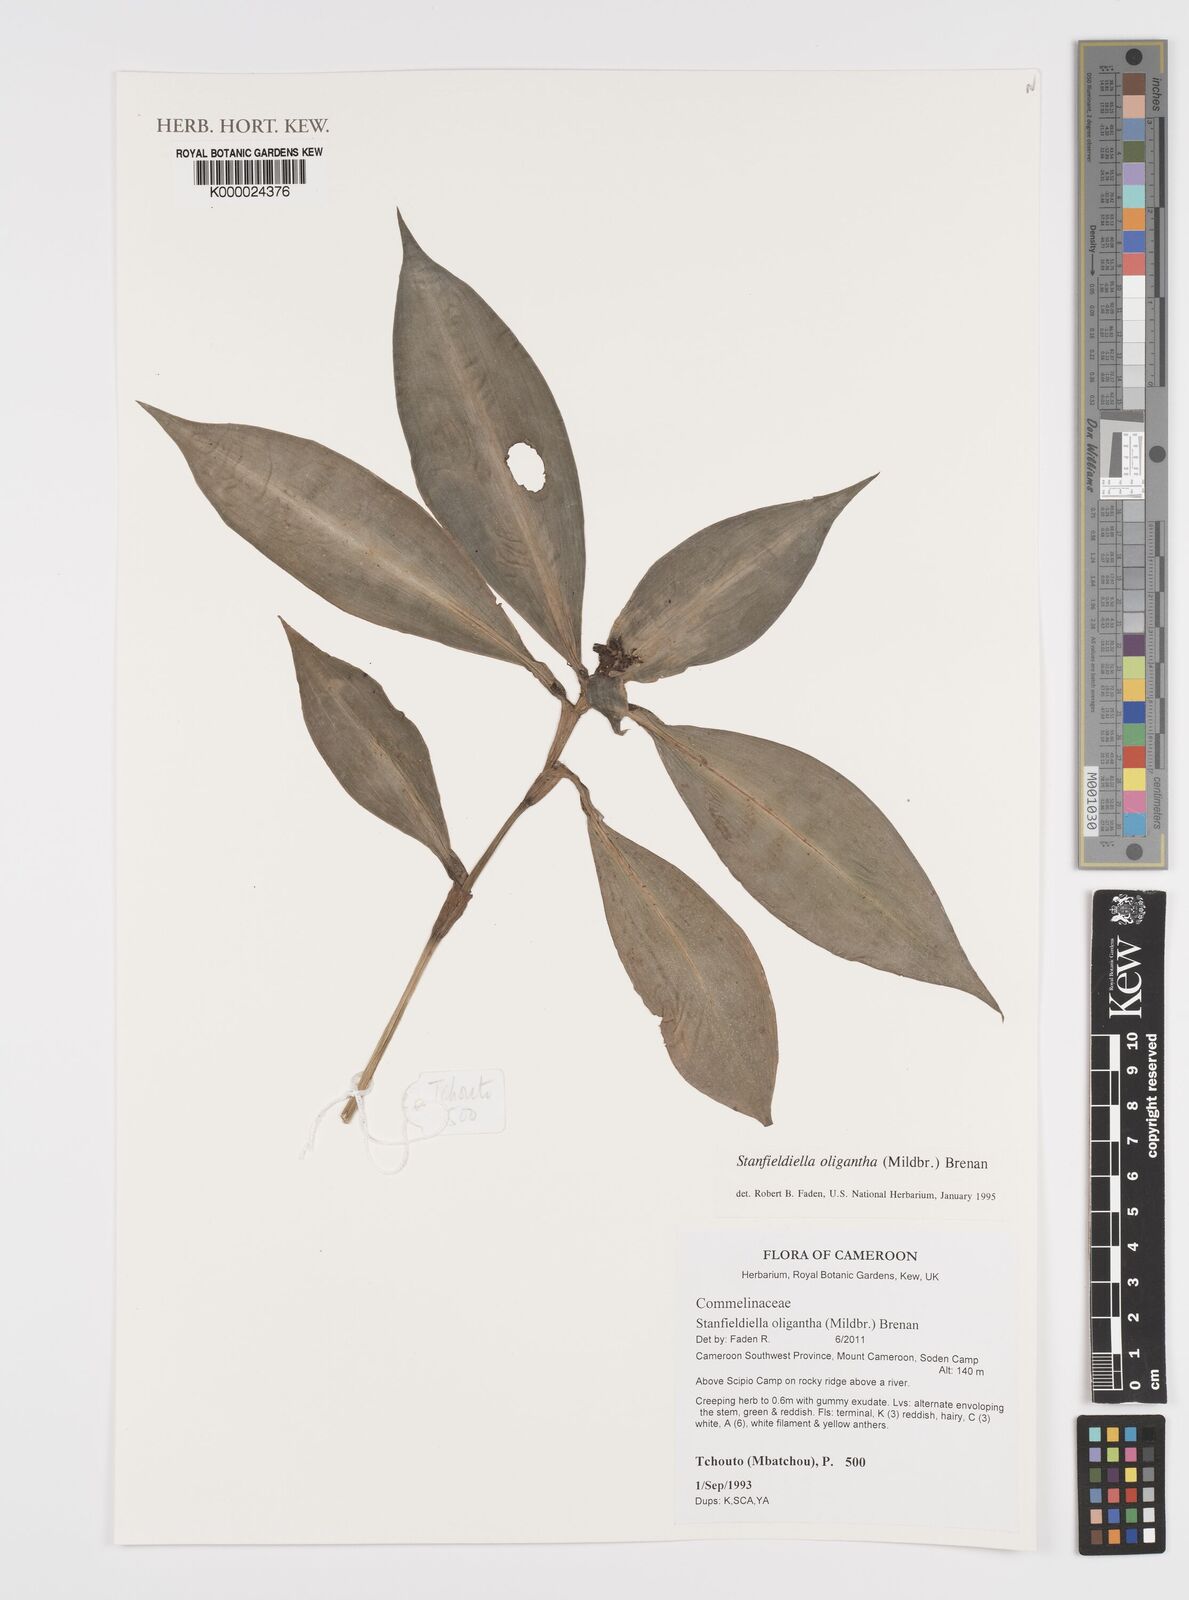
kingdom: Plantae
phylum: Tracheophyta
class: Liliopsida
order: Commelinales
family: Commelinaceae
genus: Stanfieldiella
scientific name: Stanfieldiella oligantha
